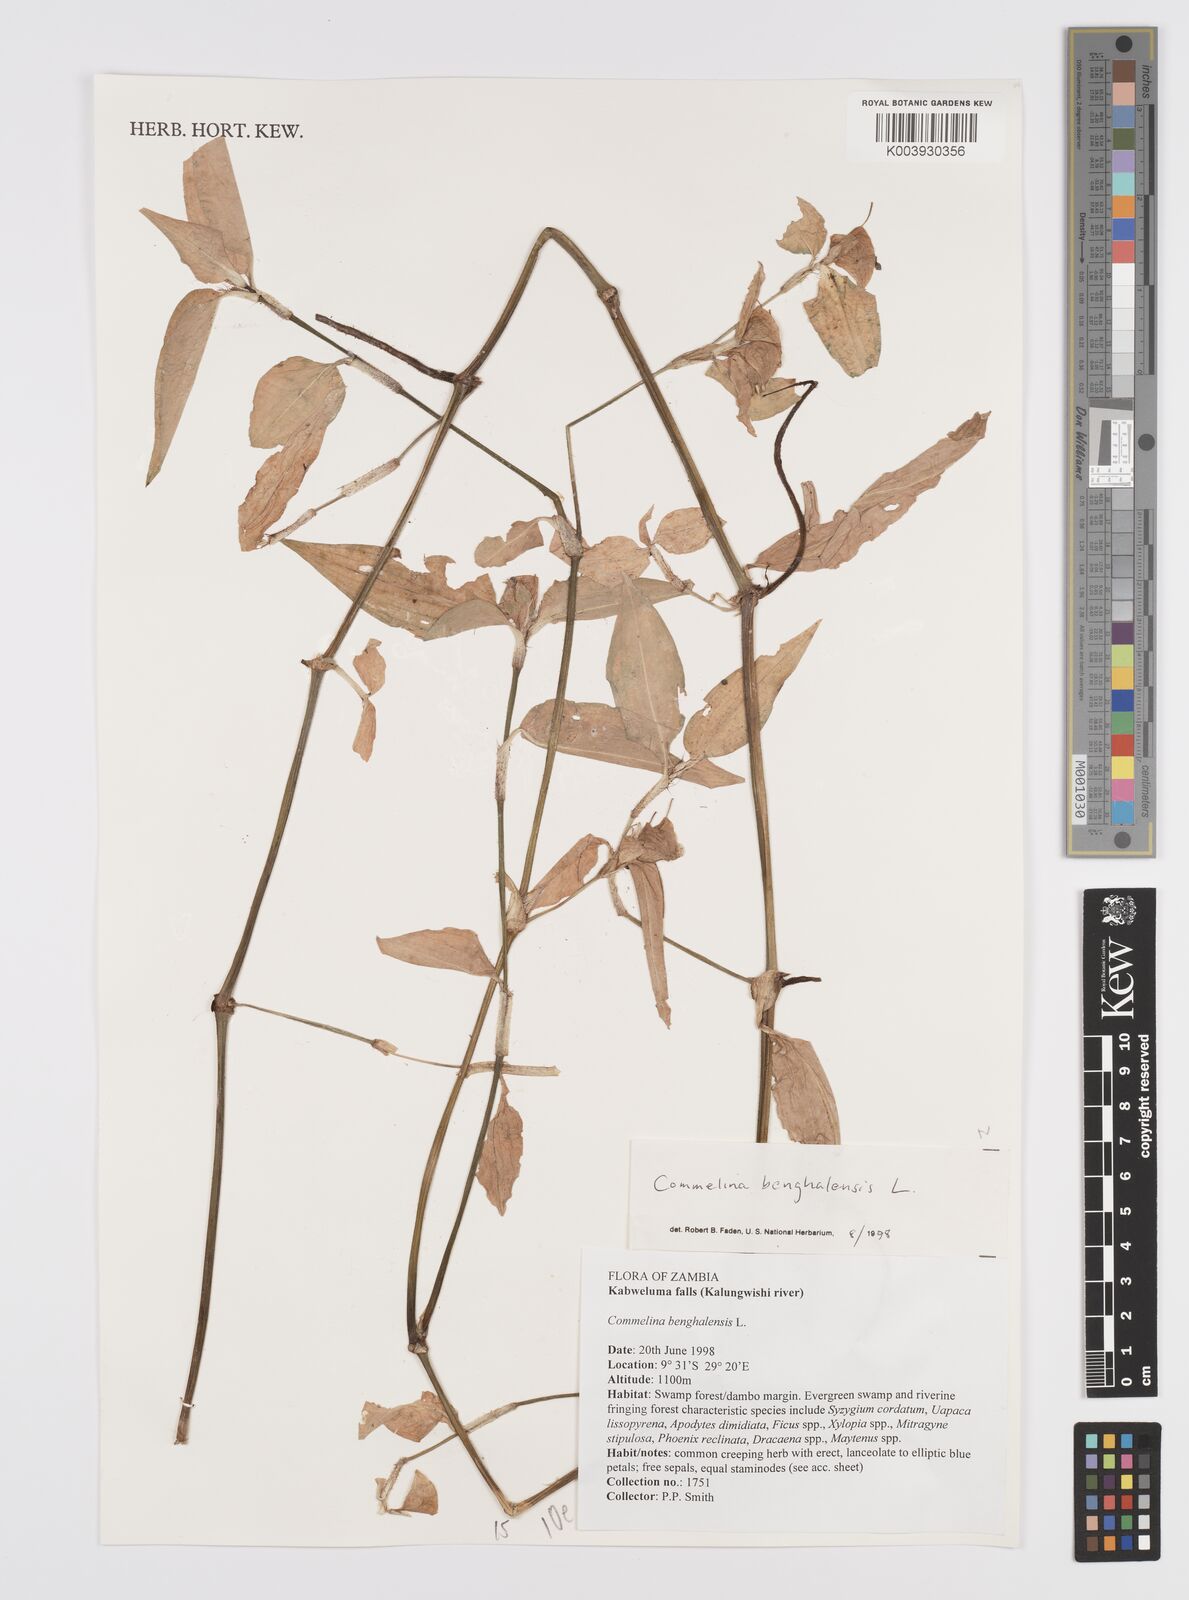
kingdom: Plantae
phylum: Tracheophyta
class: Liliopsida
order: Commelinales
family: Commelinaceae
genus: Commelina
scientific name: Commelina benghalensis
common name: Jio
